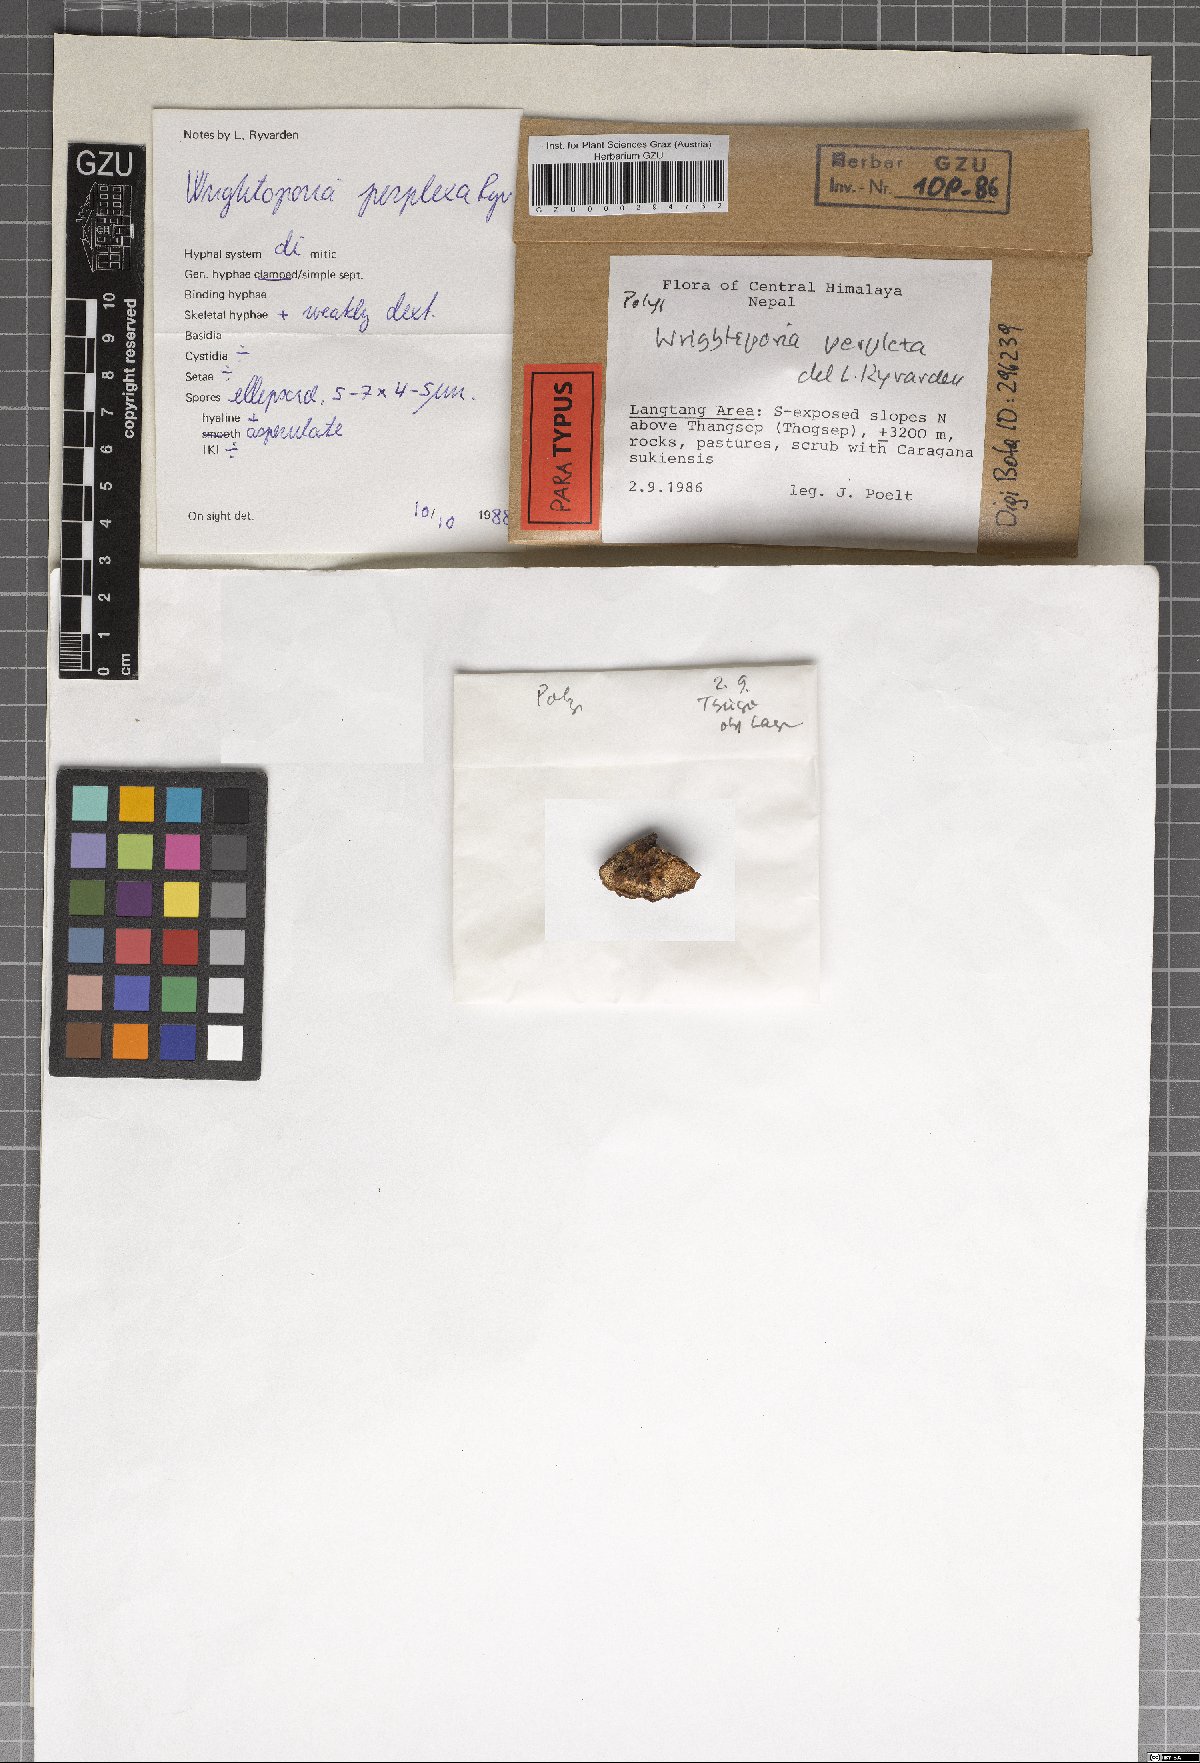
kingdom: Fungi
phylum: Basidiomycota
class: Agaricomycetes
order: Russulales
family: Bondarzewiaceae
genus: Wrightoporia
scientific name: Wrightoporia perplexa
